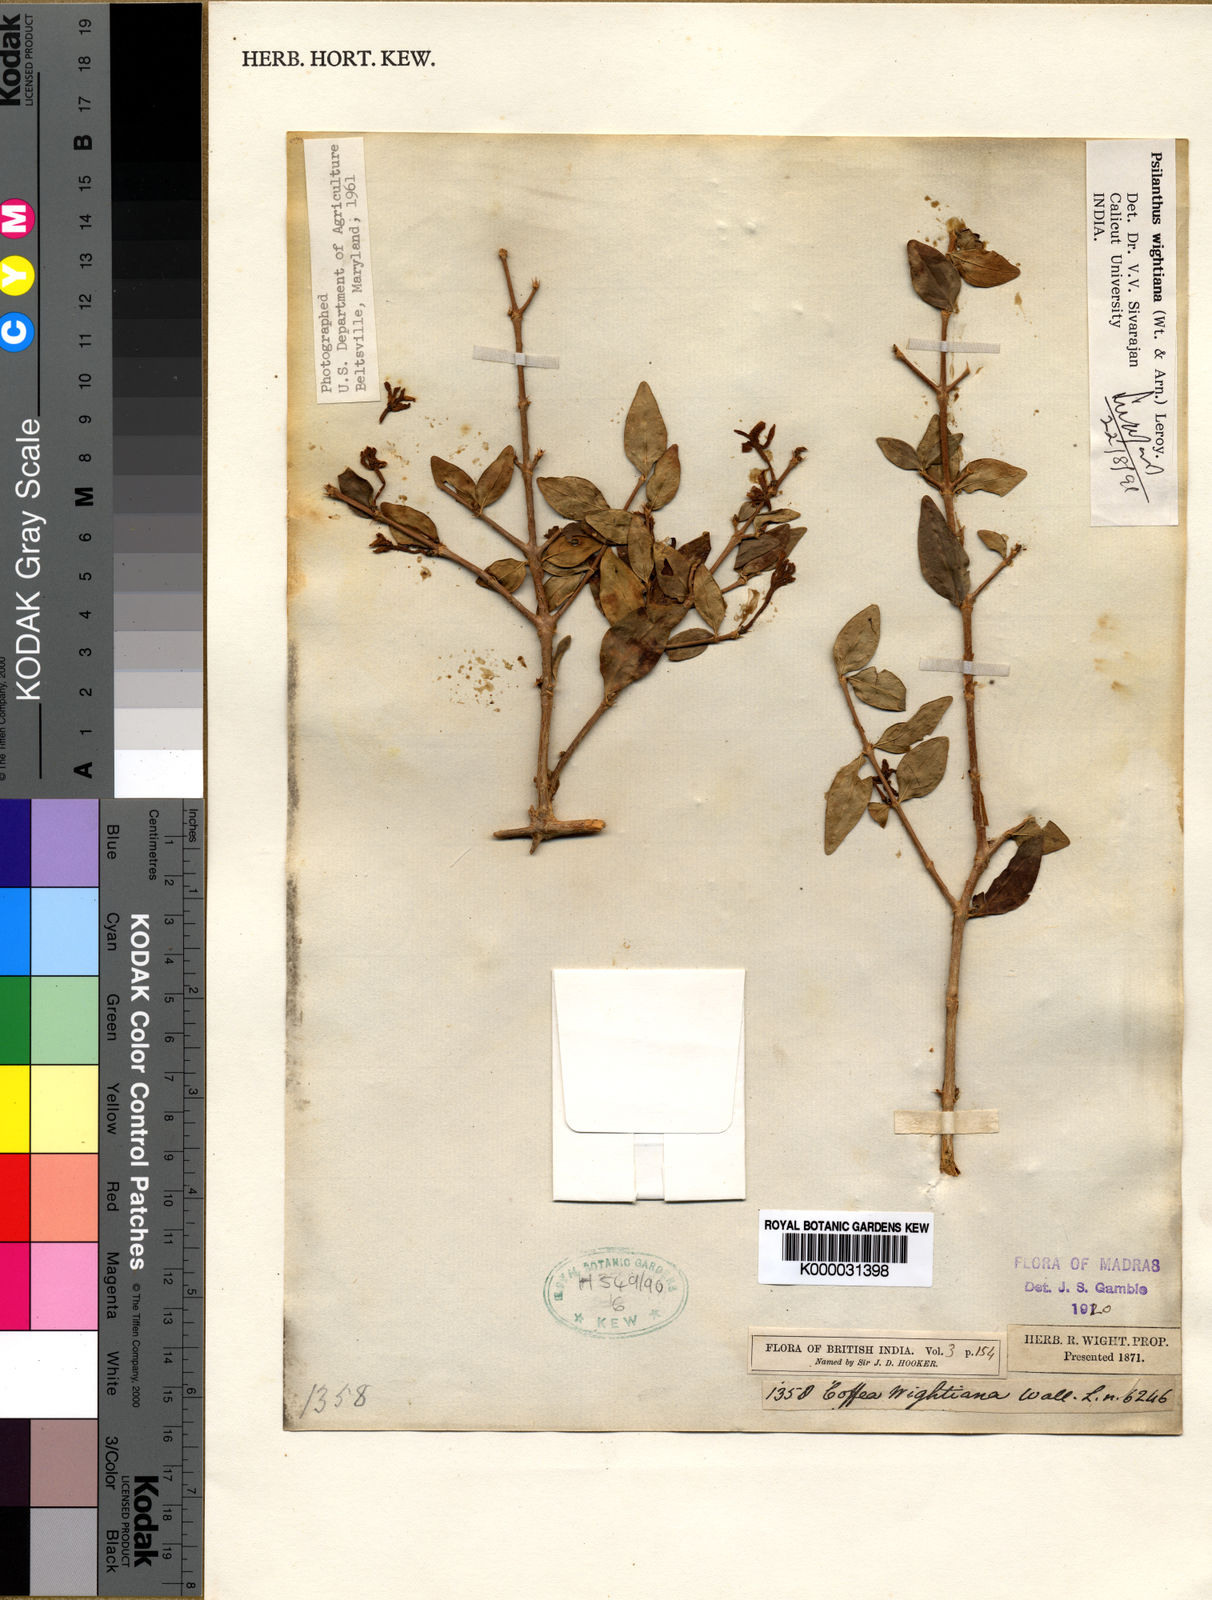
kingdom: Plantae
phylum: Tracheophyta
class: Magnoliopsida
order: Gentianales
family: Rubiaceae
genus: Coffea
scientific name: Coffea
